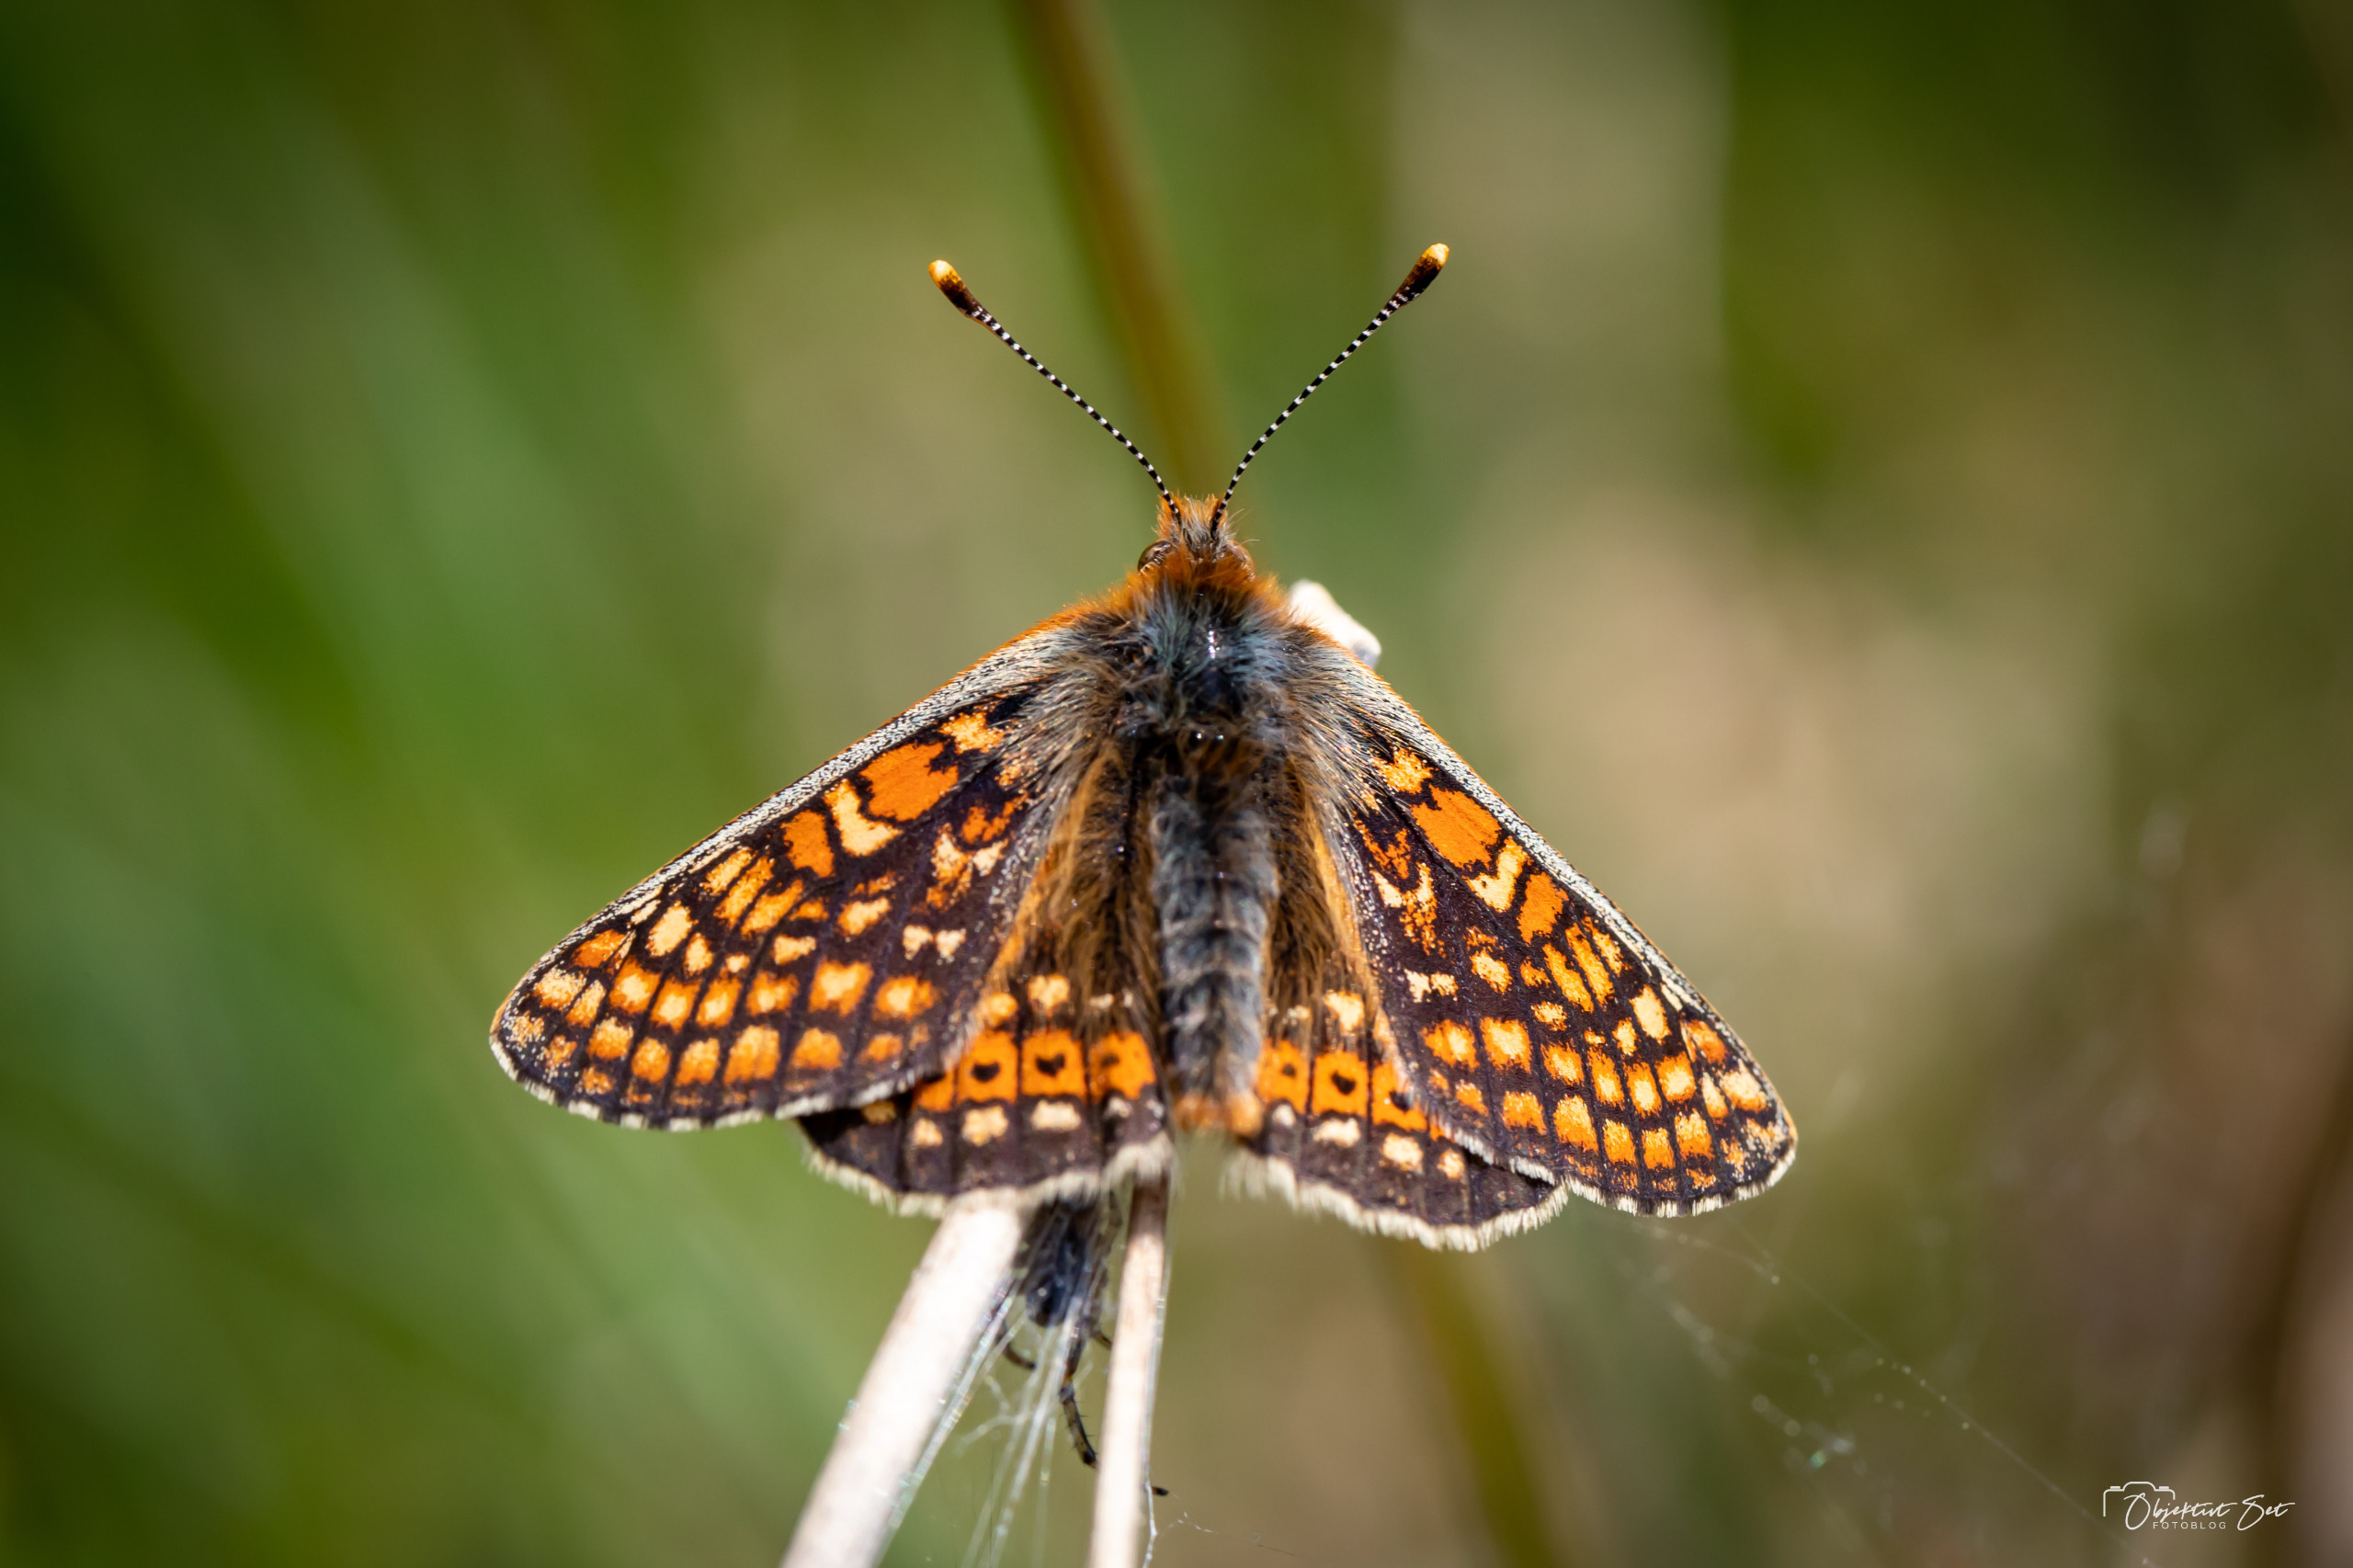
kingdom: Animalia
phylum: Arthropoda
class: Insecta
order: Lepidoptera
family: Nymphalidae
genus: Euphydryas
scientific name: Euphydryas aurinia
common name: Hedepletvinge
